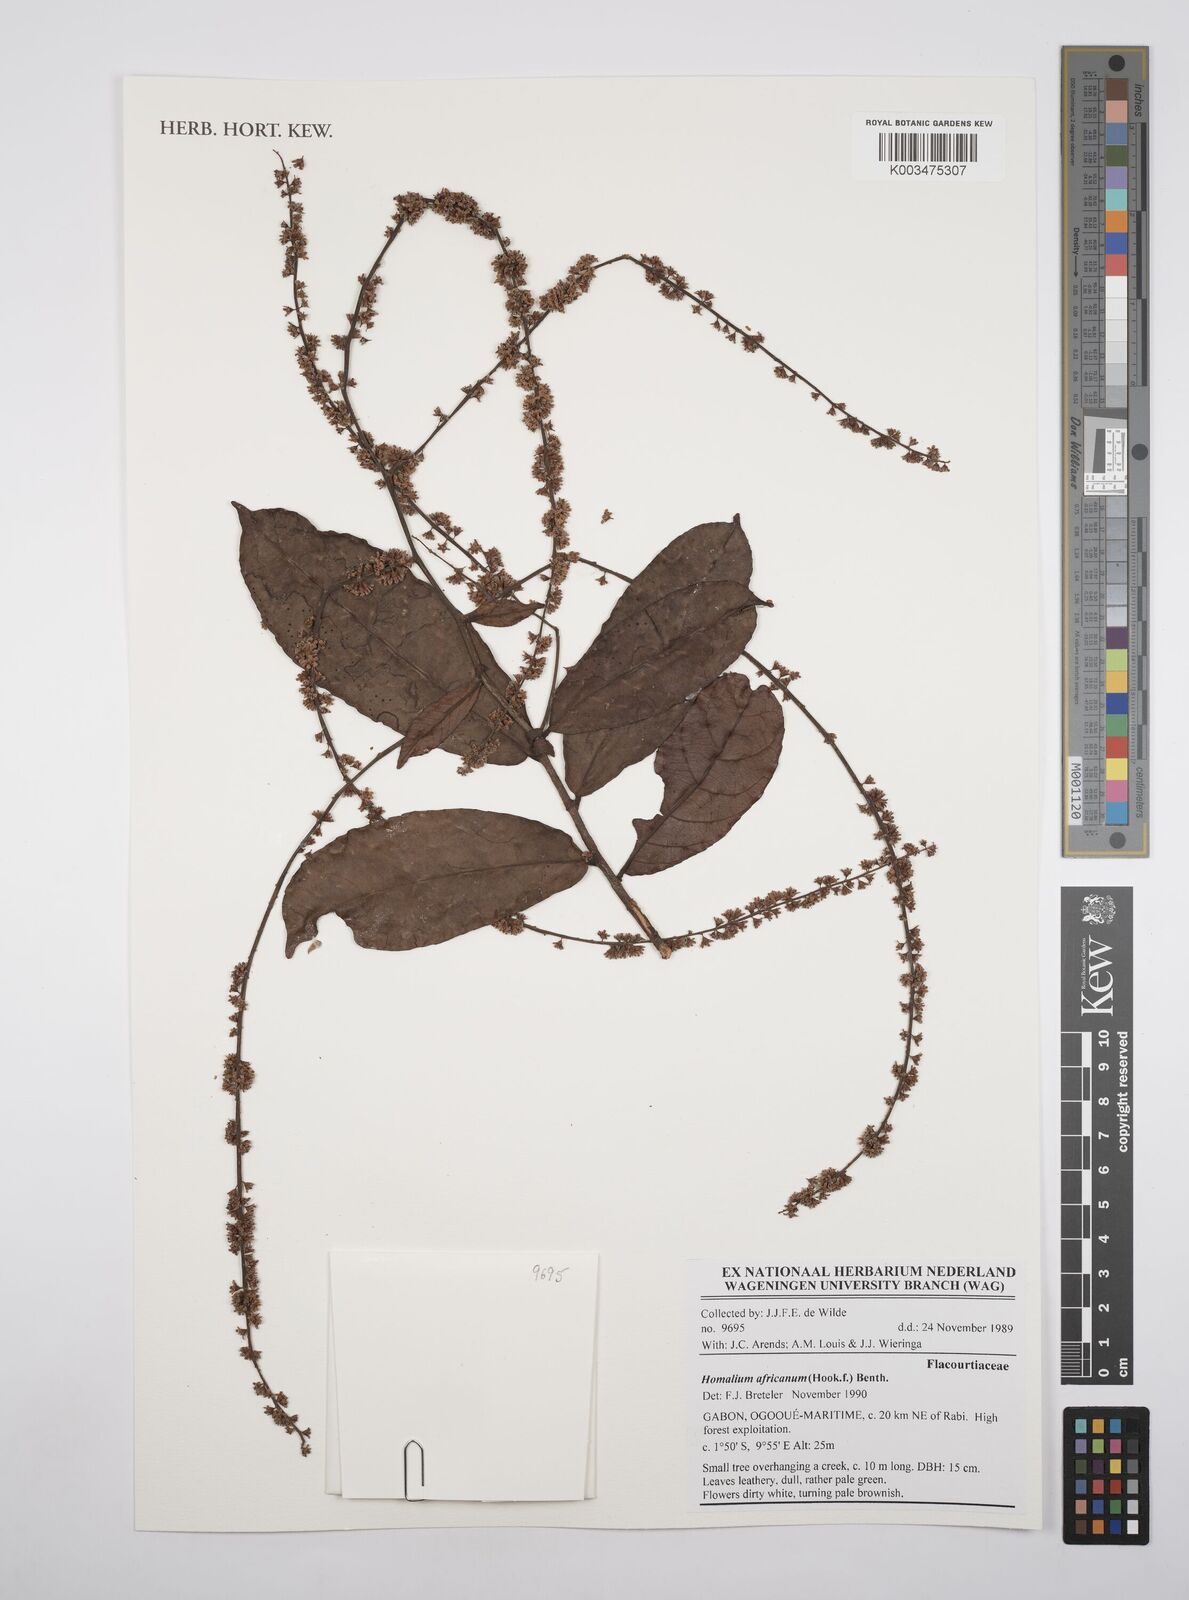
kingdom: Plantae
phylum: Tracheophyta
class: Magnoliopsida
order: Malpighiales
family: Salicaceae
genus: Homalium
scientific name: Homalium africanum
